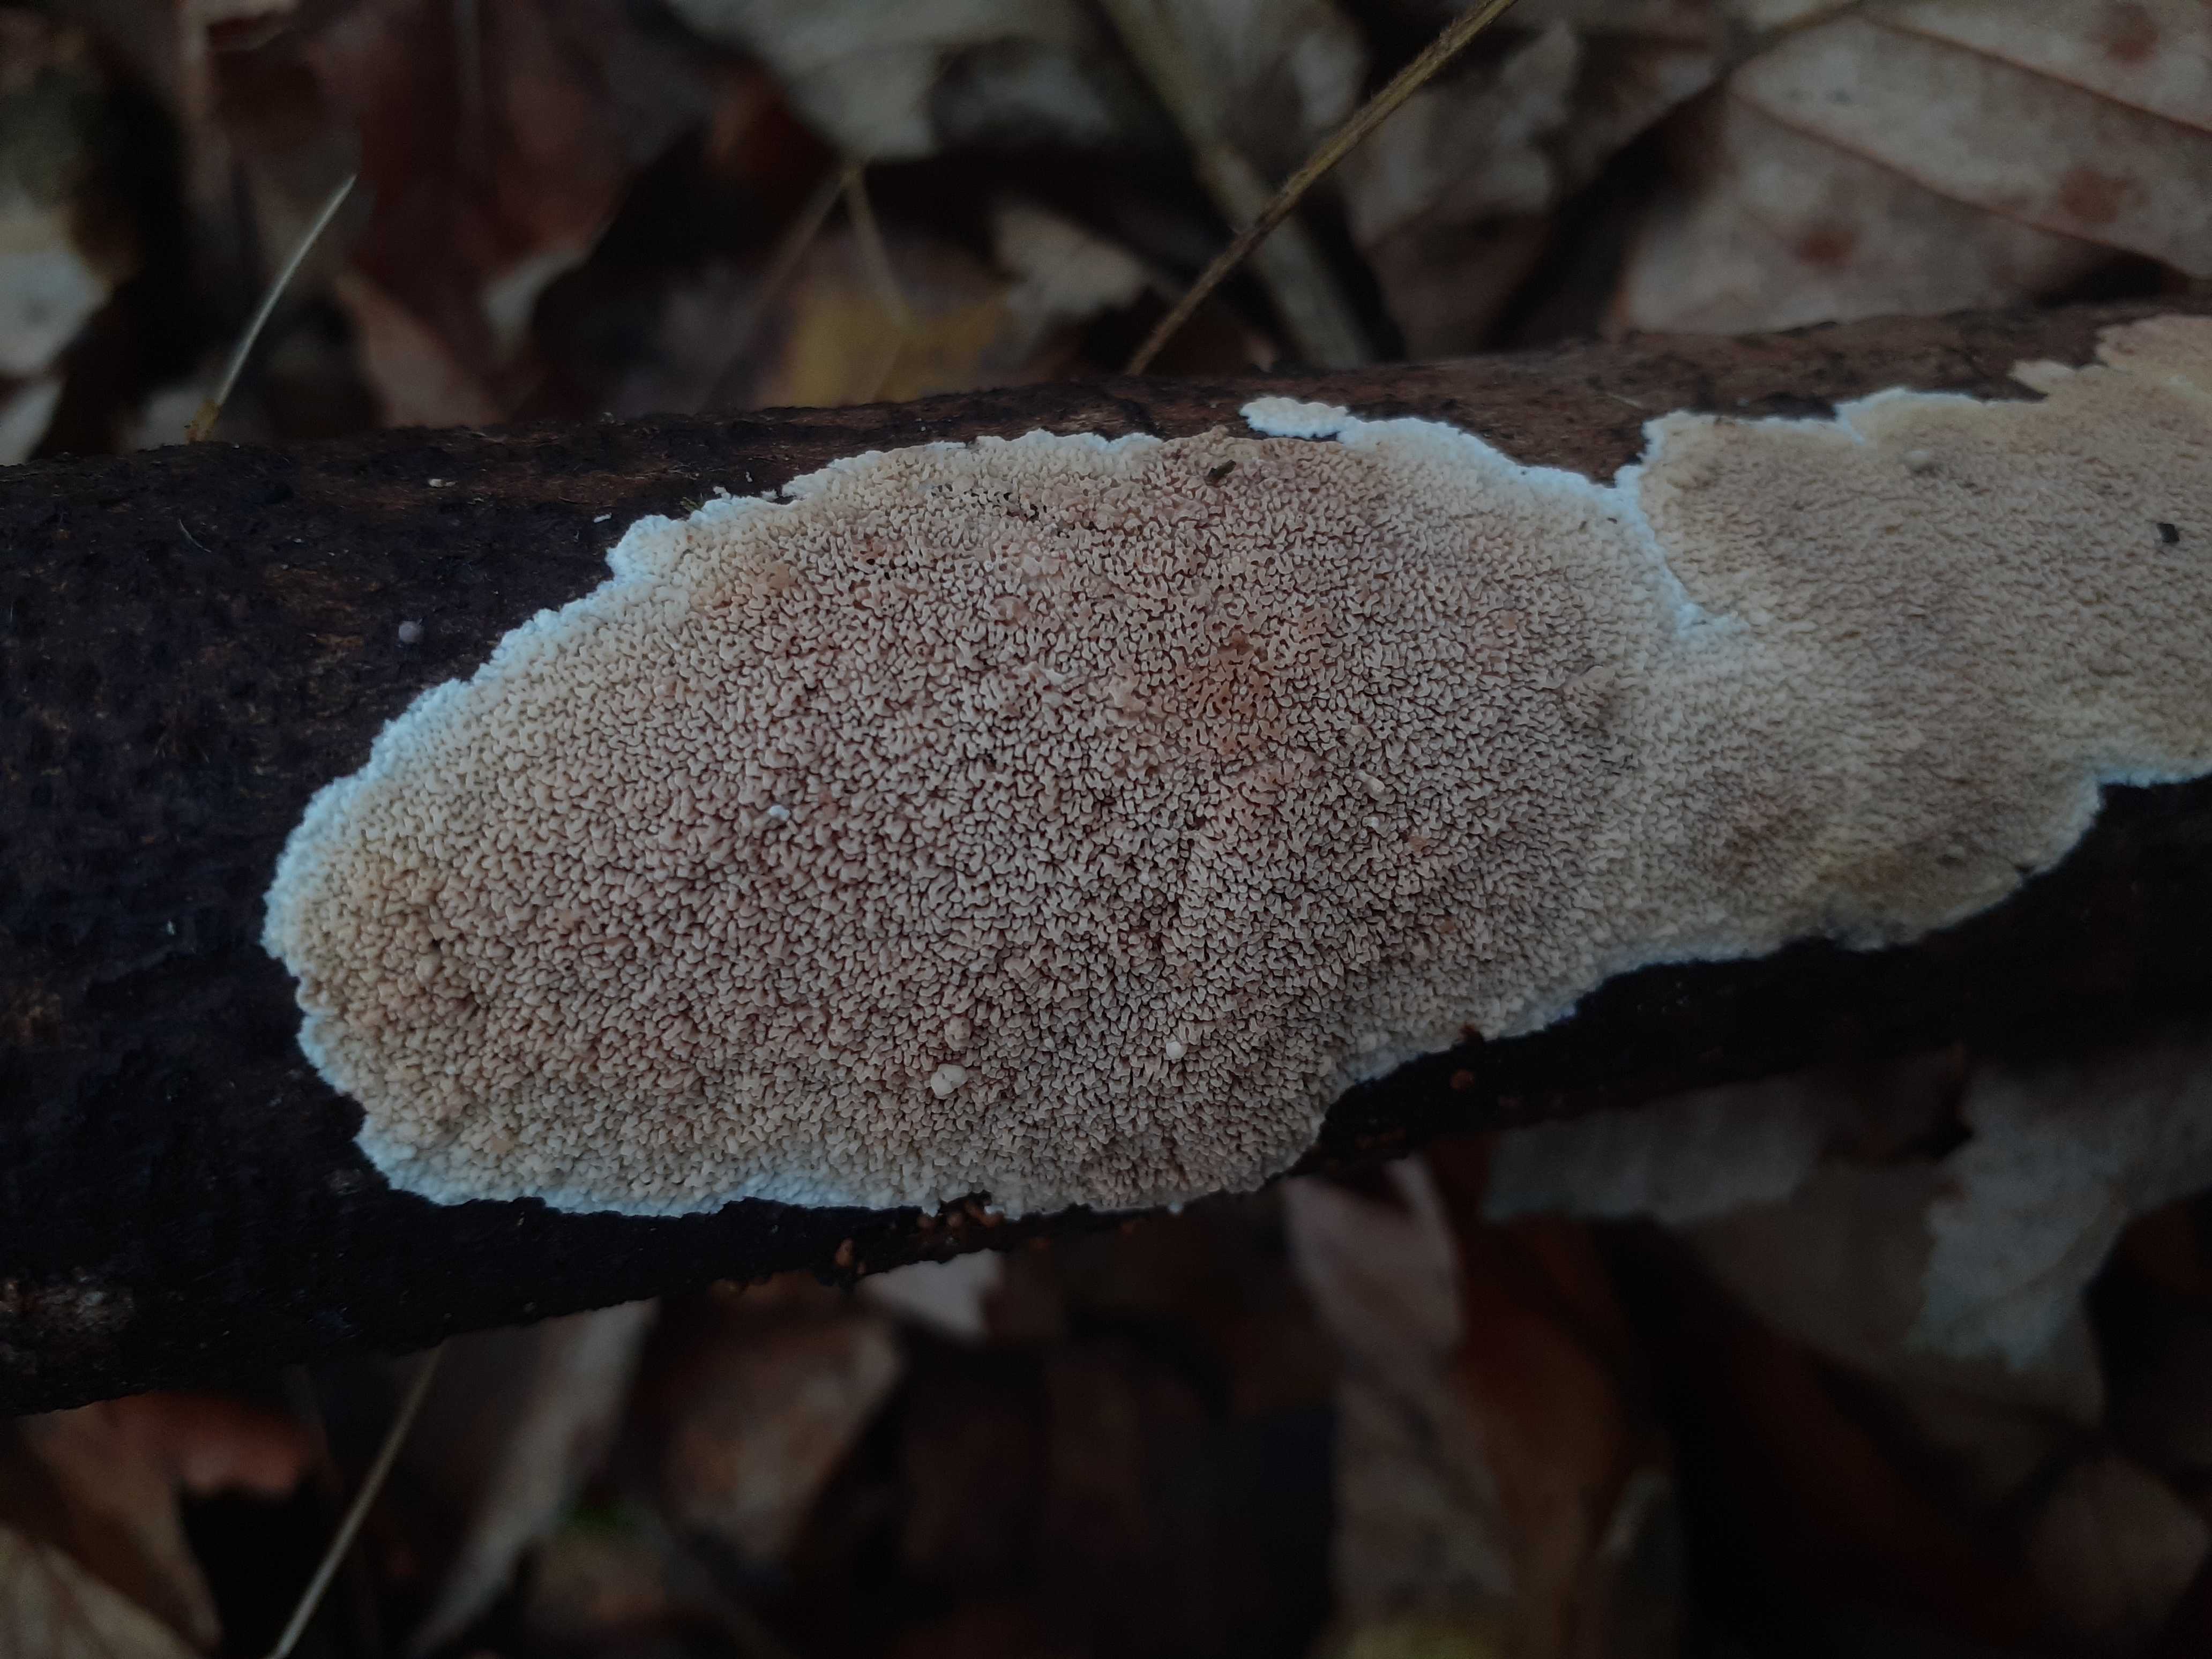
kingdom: Fungi
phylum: Basidiomycota
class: Agaricomycetes
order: Polyporales
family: Steccherinaceae
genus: Steccherinum
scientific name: Steccherinum ochraceum
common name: almindelig skønpig
